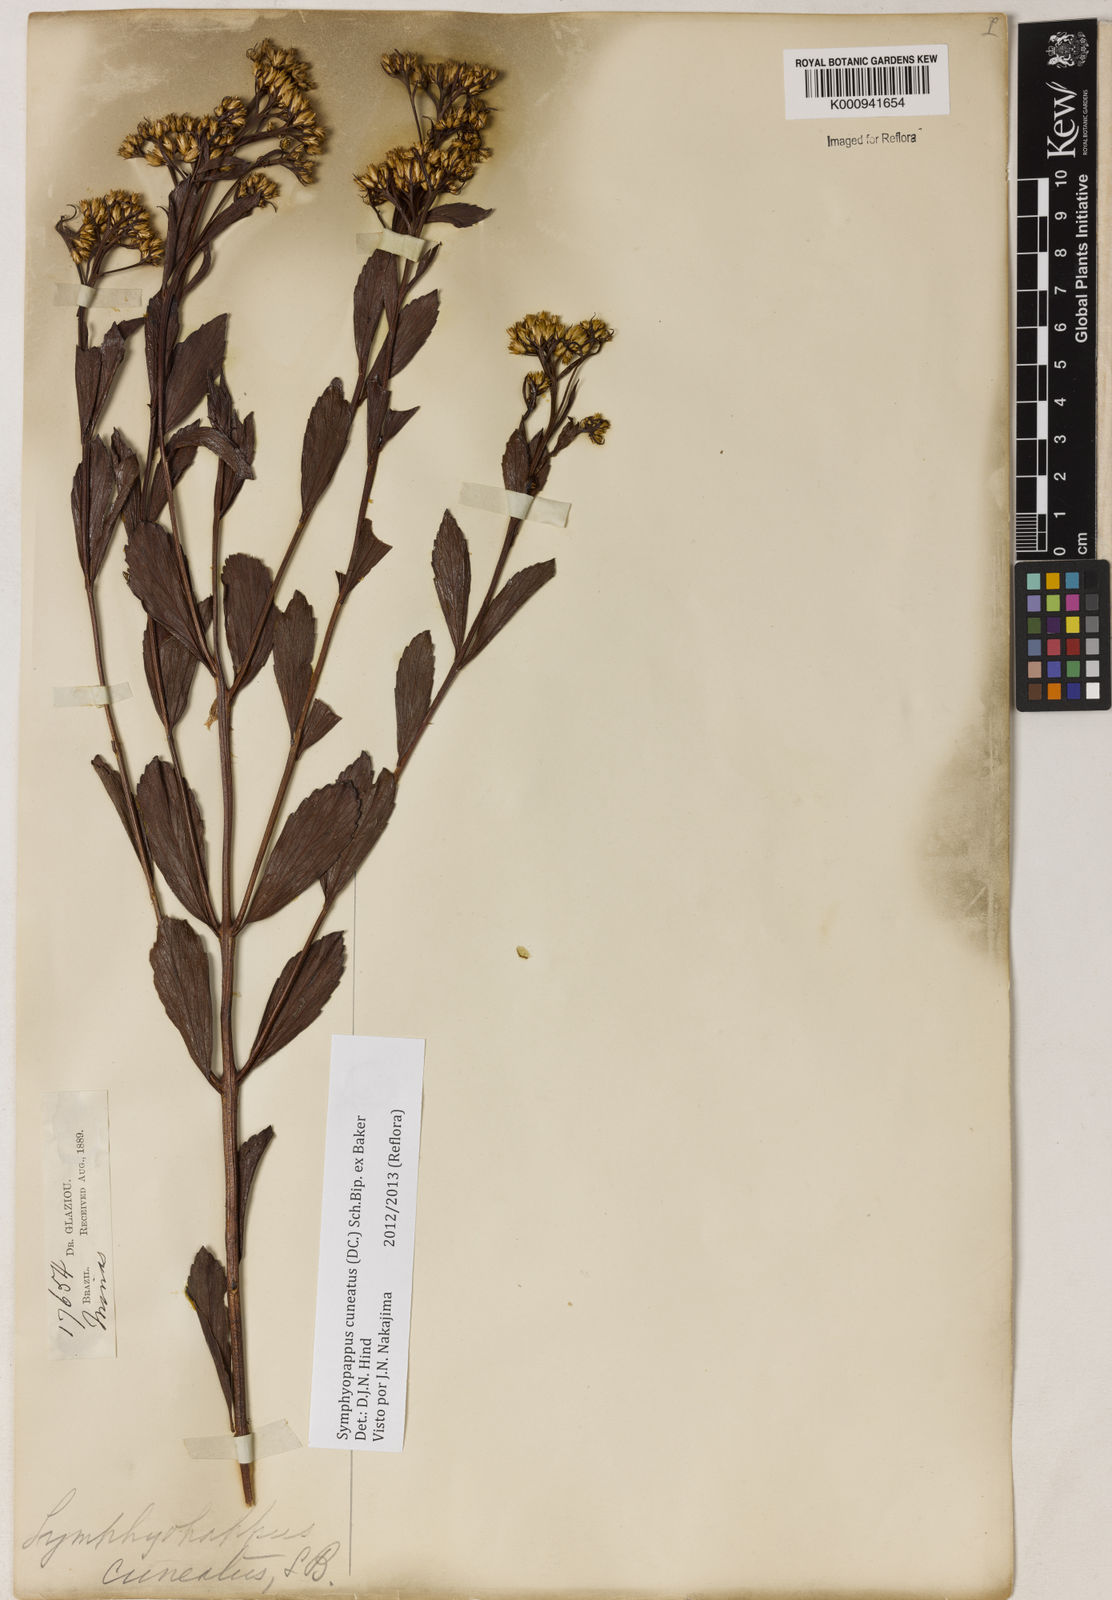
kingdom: Plantae
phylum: Tracheophyta
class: Magnoliopsida
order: Asterales
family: Asteraceae
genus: Symphyopappus
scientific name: Symphyopappus cuneatus
